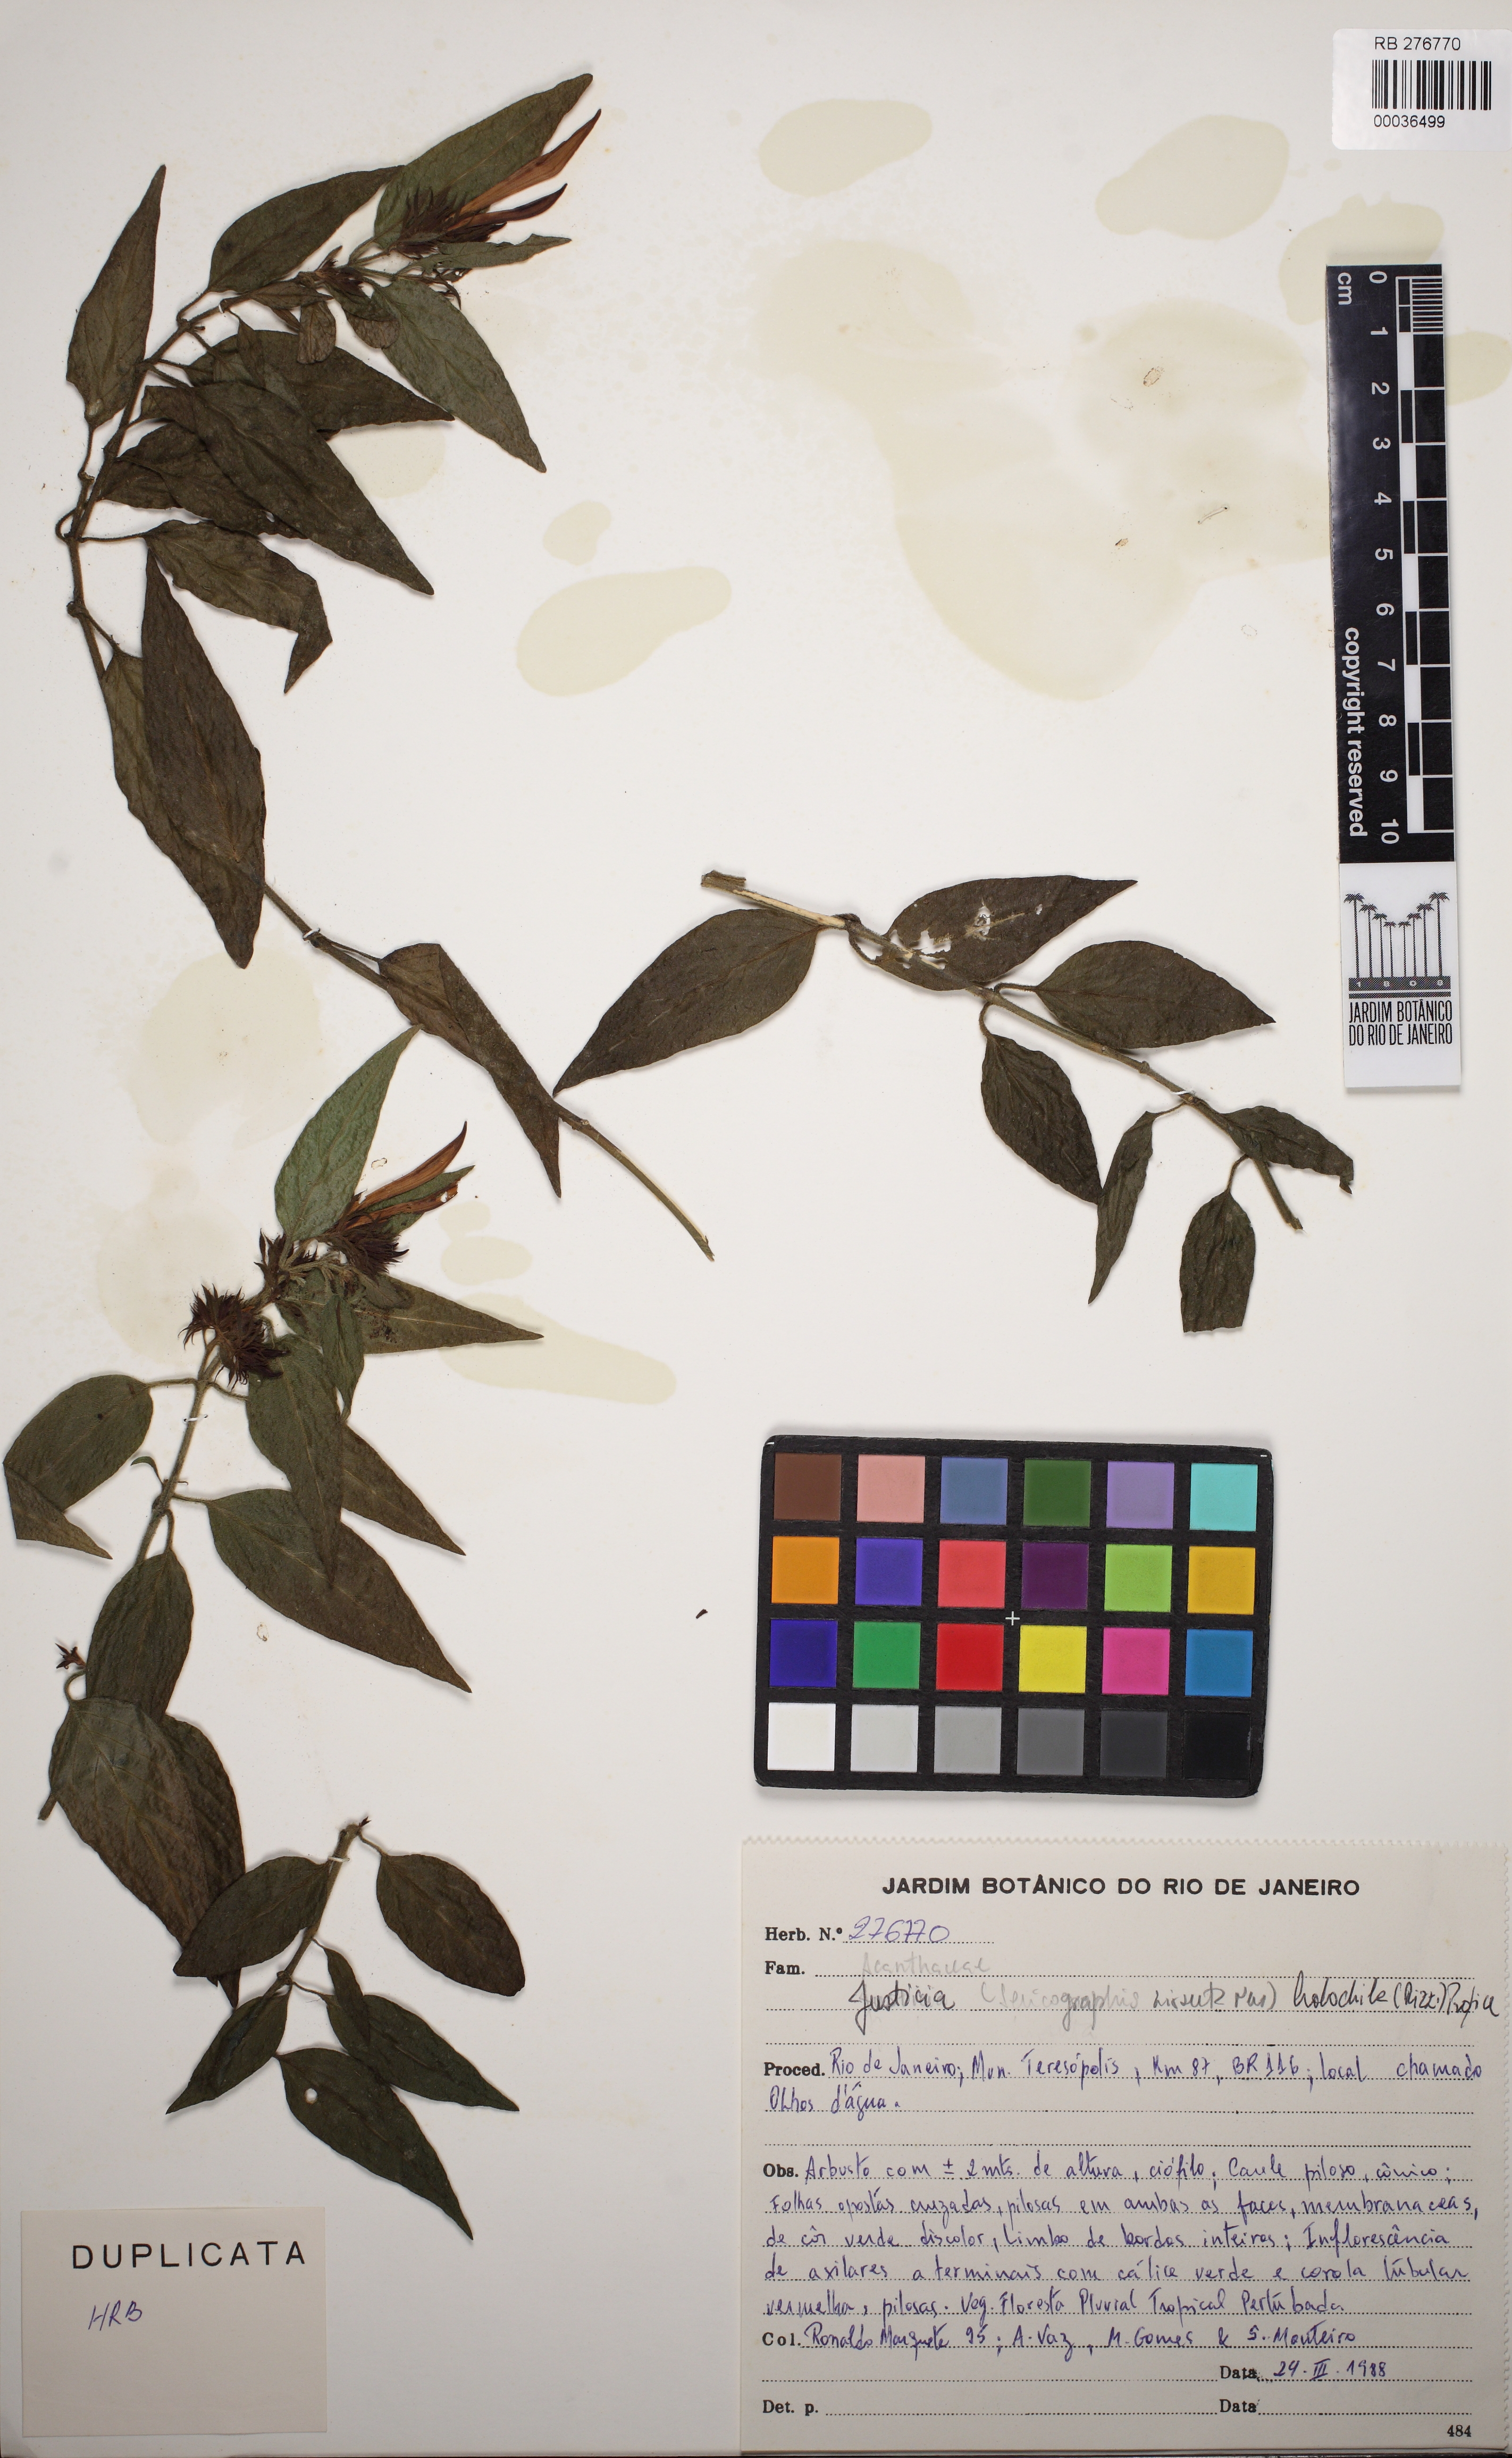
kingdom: Plantae
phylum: Tracheophyta
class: Magnoliopsida
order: Lamiales
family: Acanthaceae
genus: Justicia
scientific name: Justicia monticola
